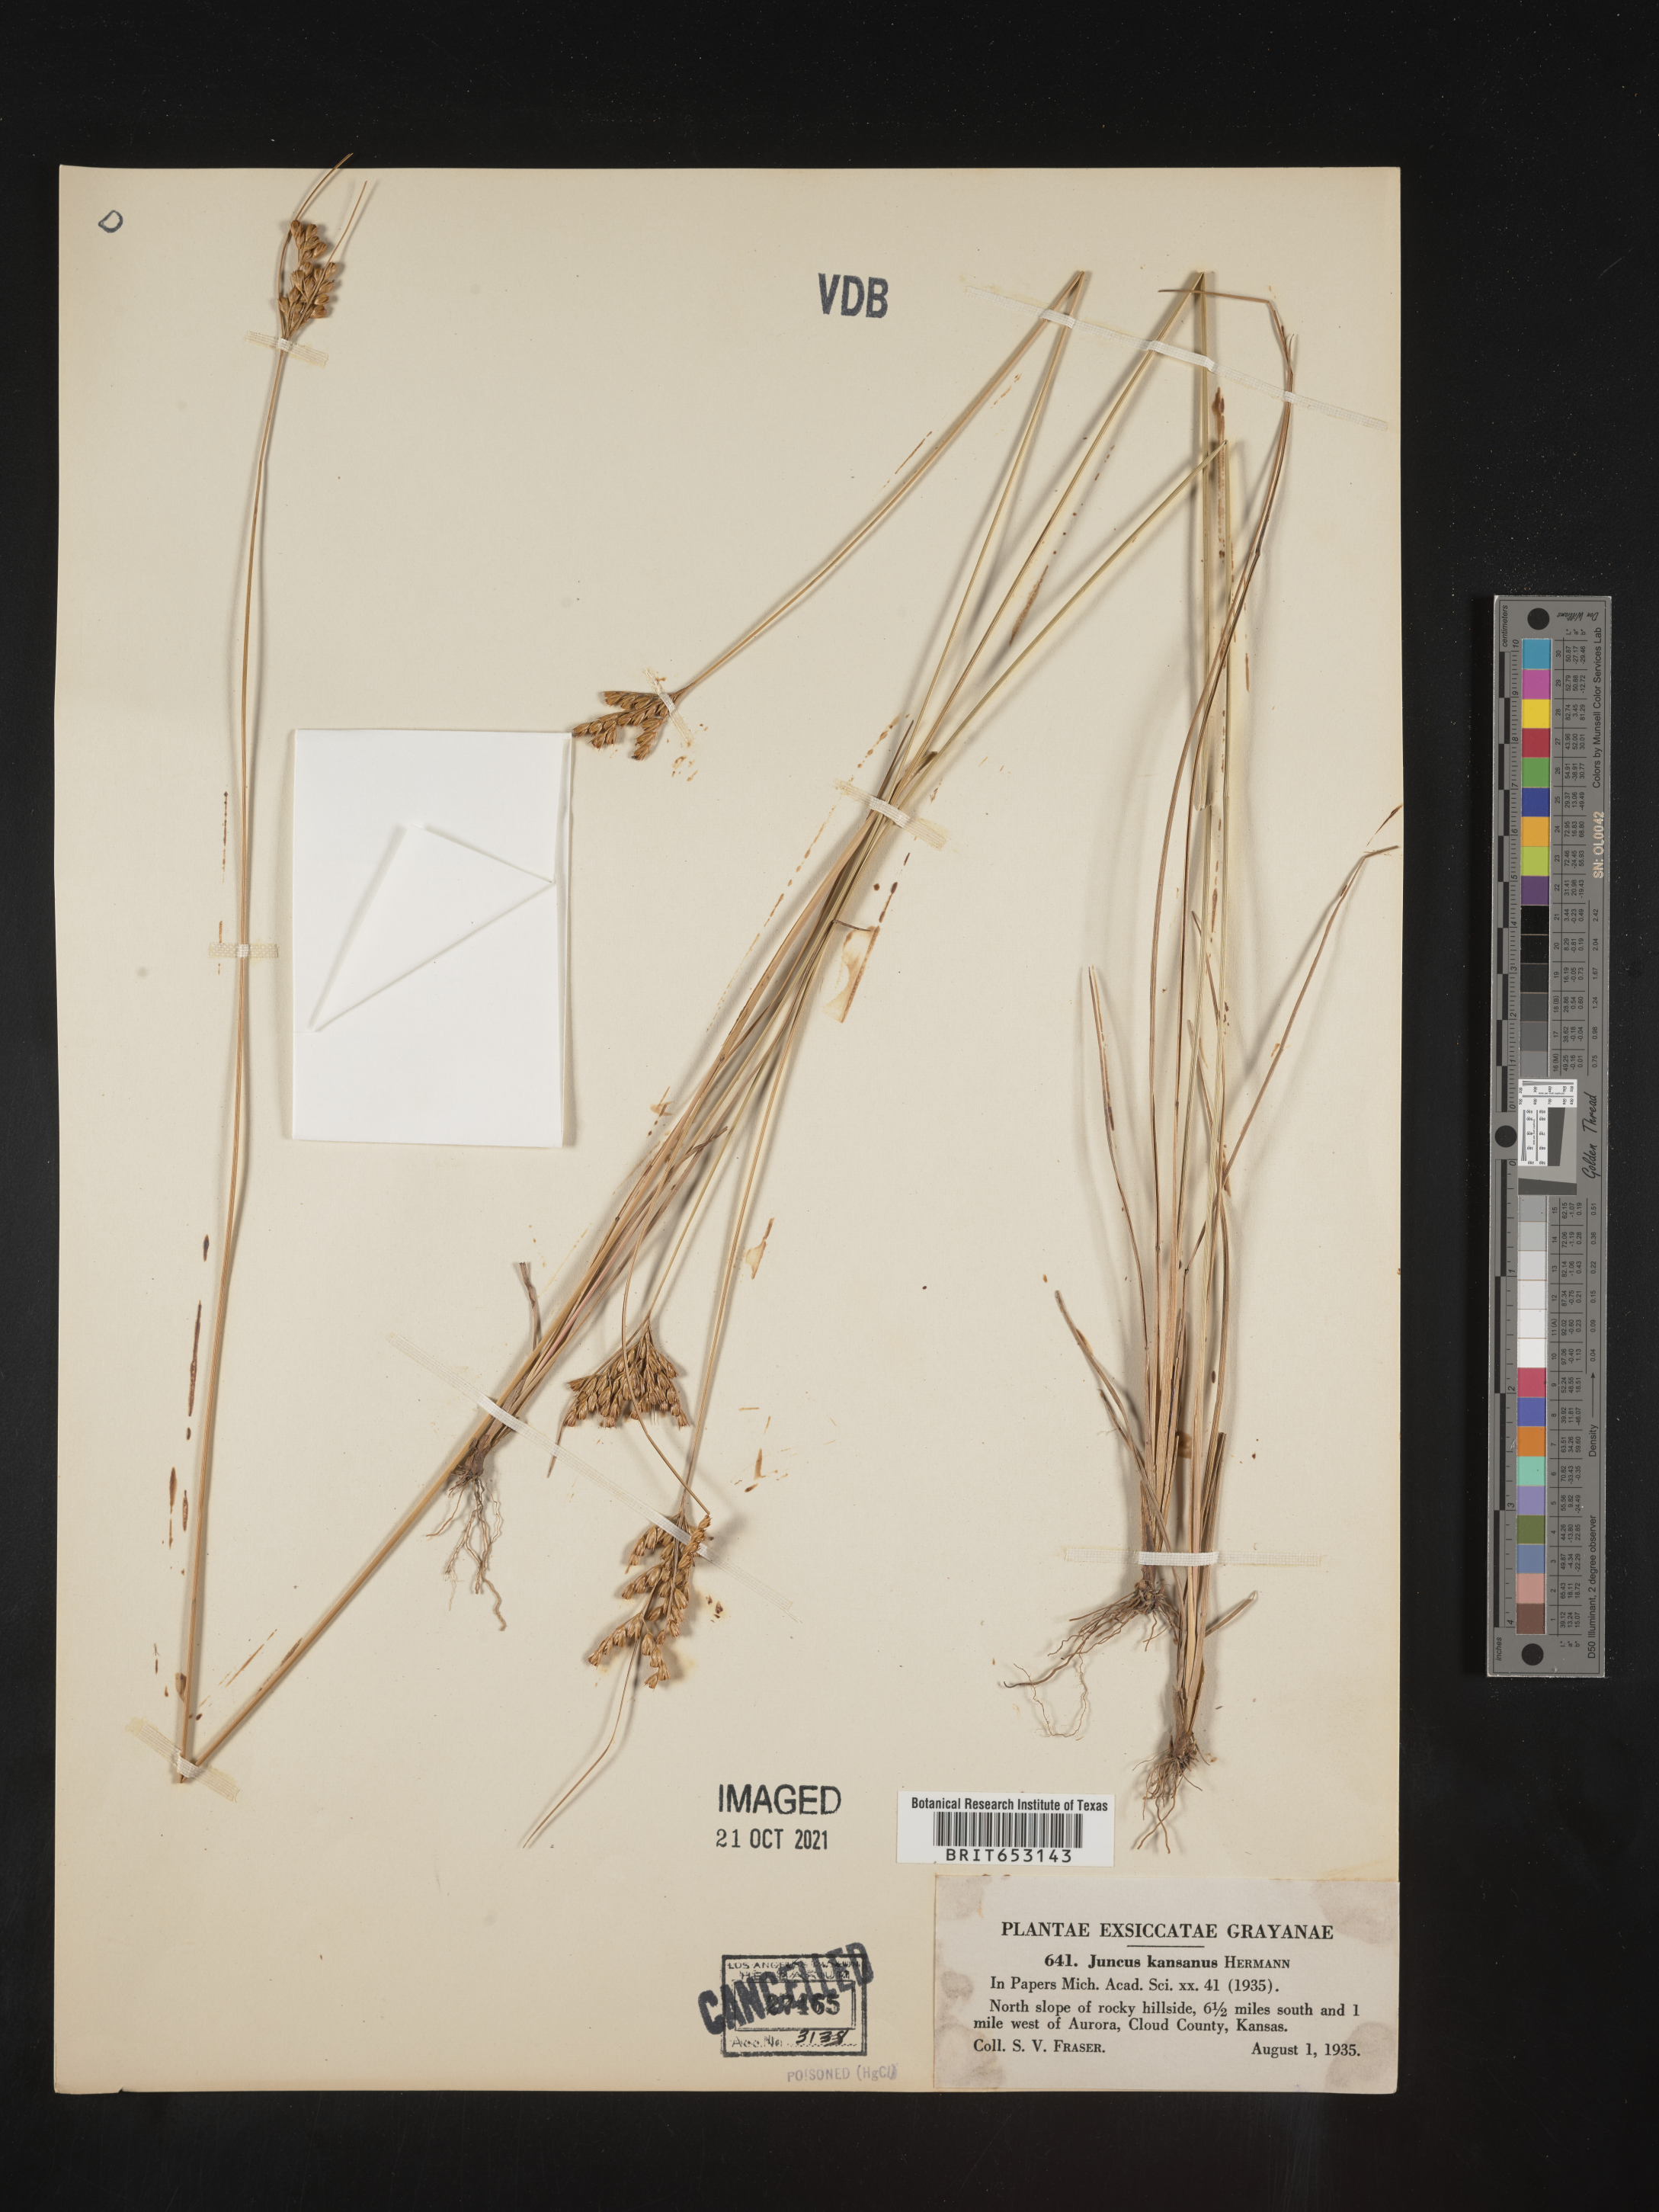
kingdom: Plantae
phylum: Tracheophyta
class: Liliopsida
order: Poales
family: Juncaceae
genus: Juncus
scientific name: Juncus brachyphyllus
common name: Tufted-stem rush
